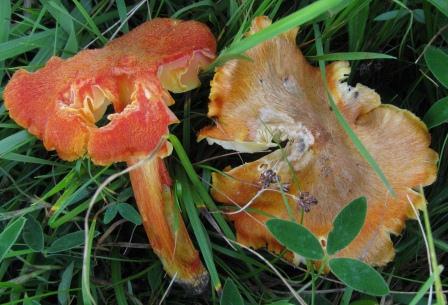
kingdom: Fungi
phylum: Basidiomycota
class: Agaricomycetes
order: Agaricales
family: Hygrophoraceae
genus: Hygrocybe
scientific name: Hygrocybe intermedia
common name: trævlet vokshat
